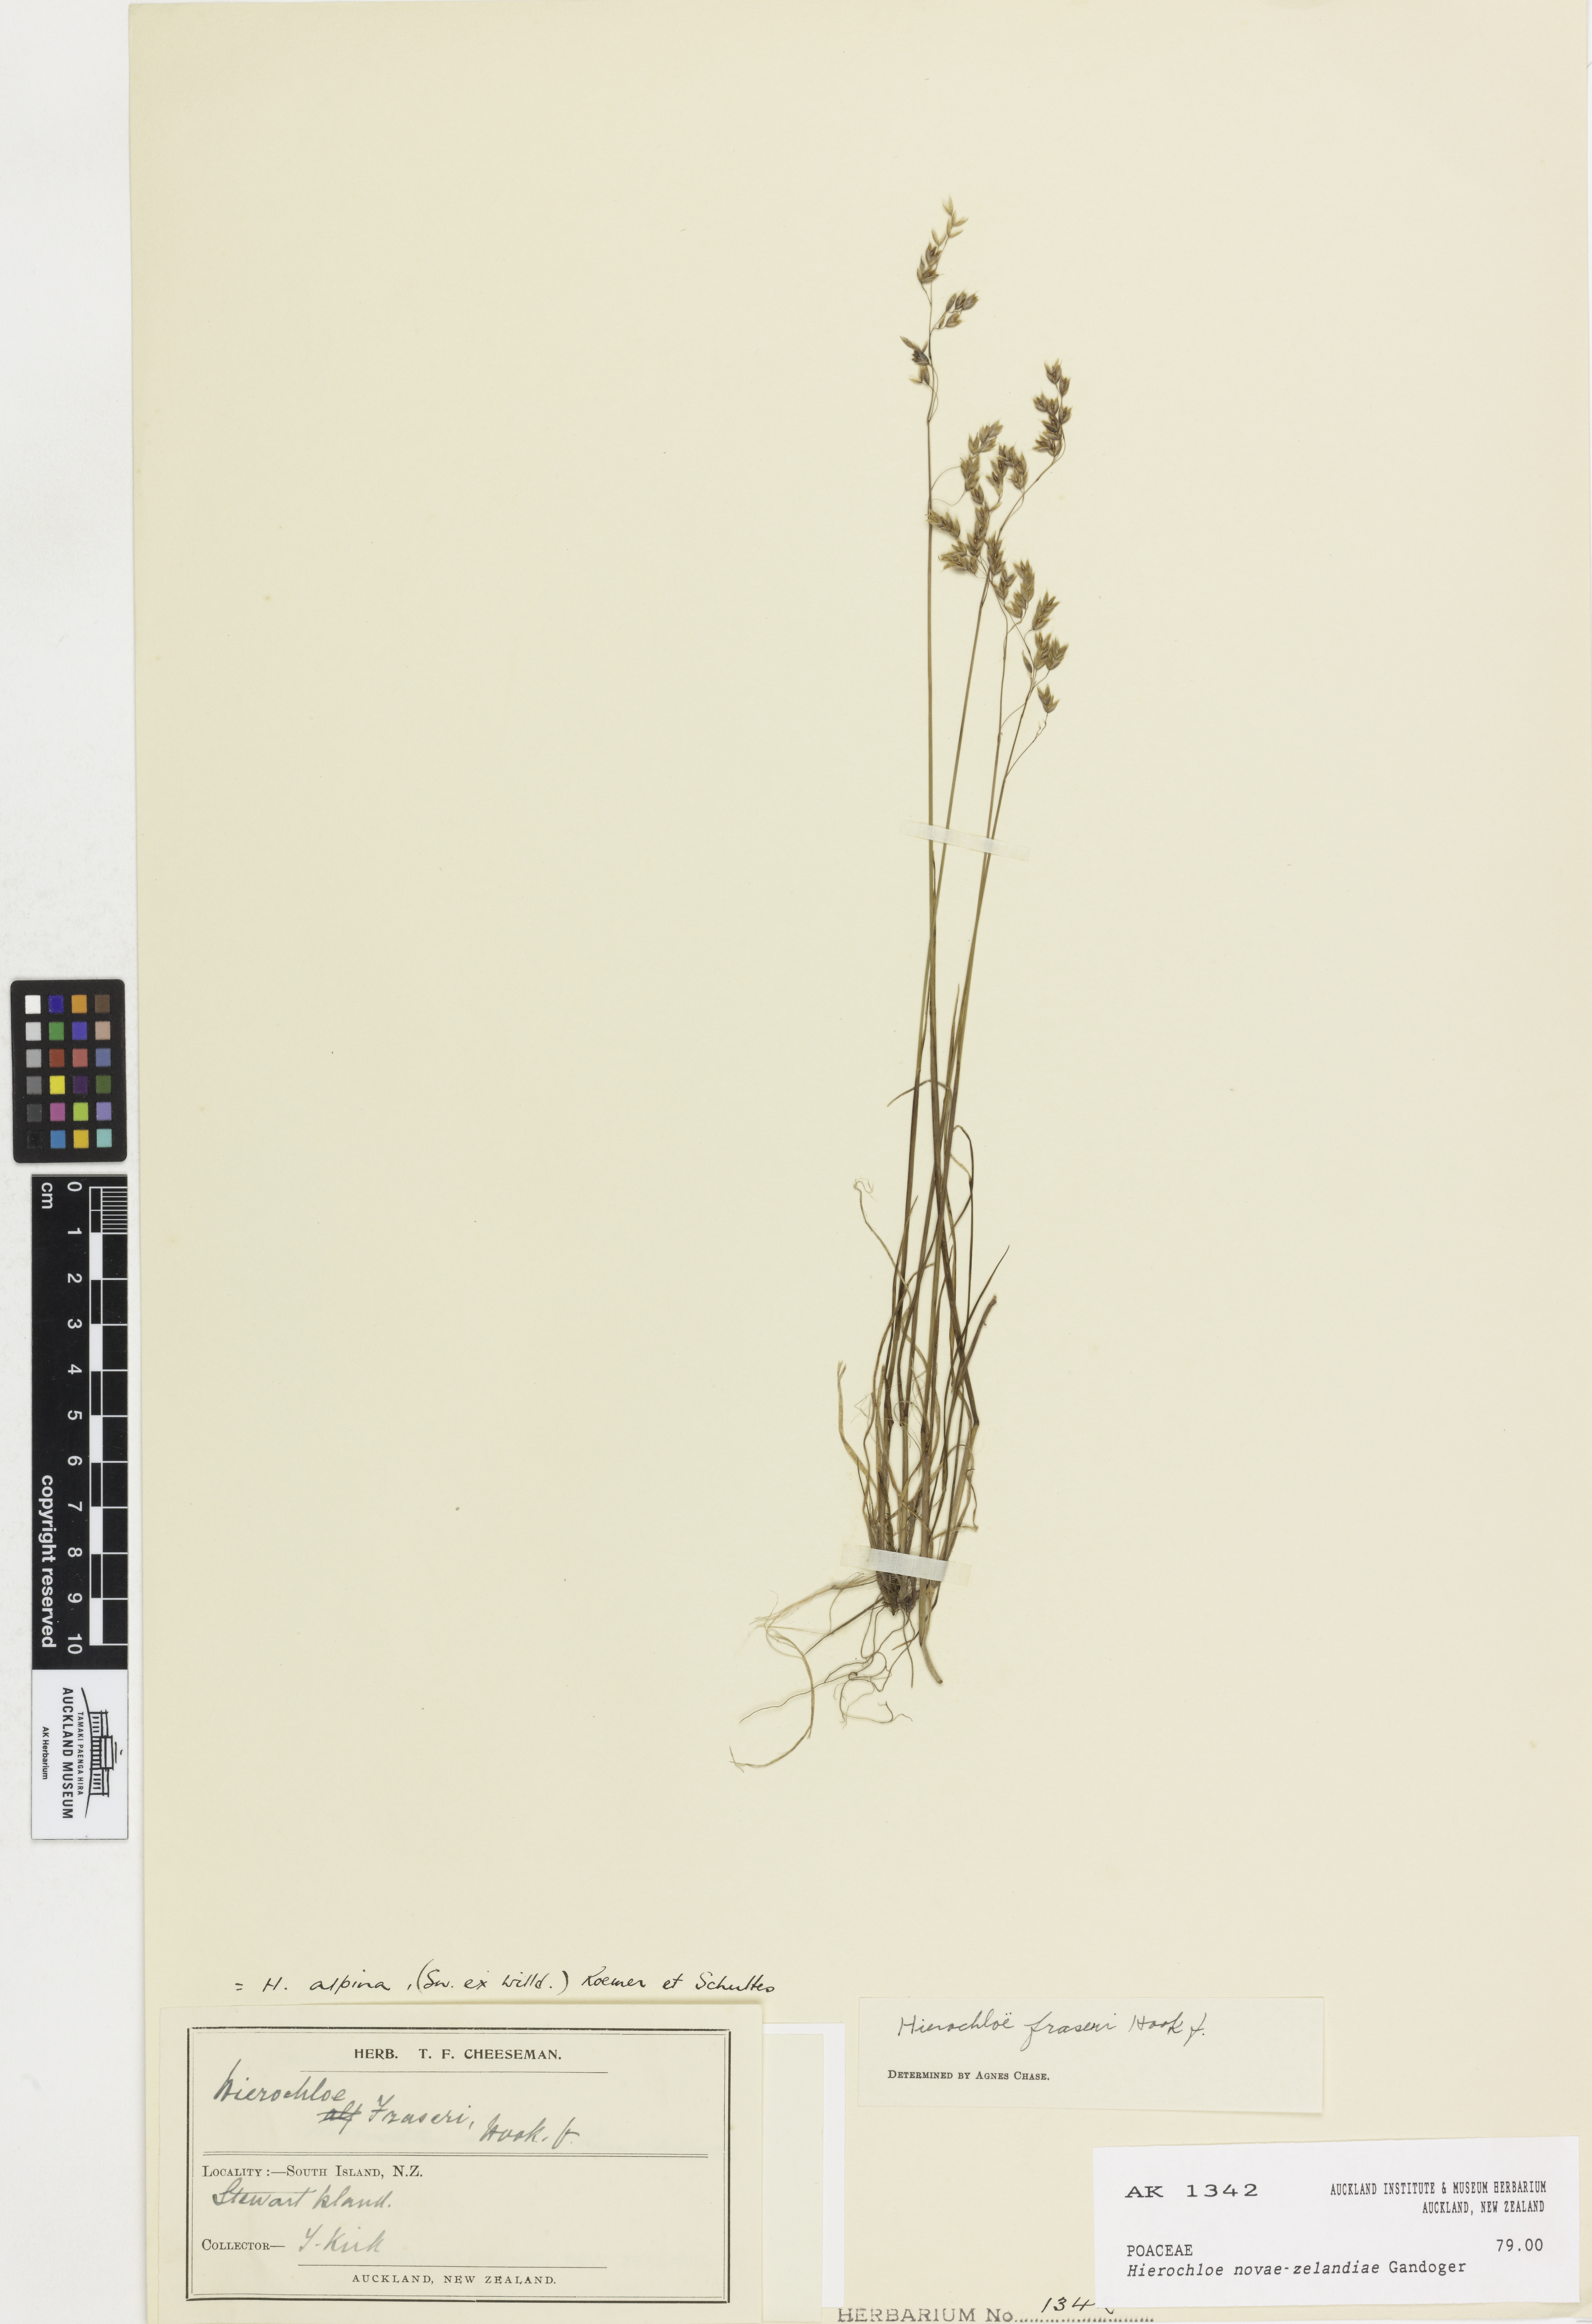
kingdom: Plantae
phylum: Tracheophyta
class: Liliopsida
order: Poales
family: Poaceae
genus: Anthoxanthum
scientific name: Anthoxanthum novae-zelandiae
